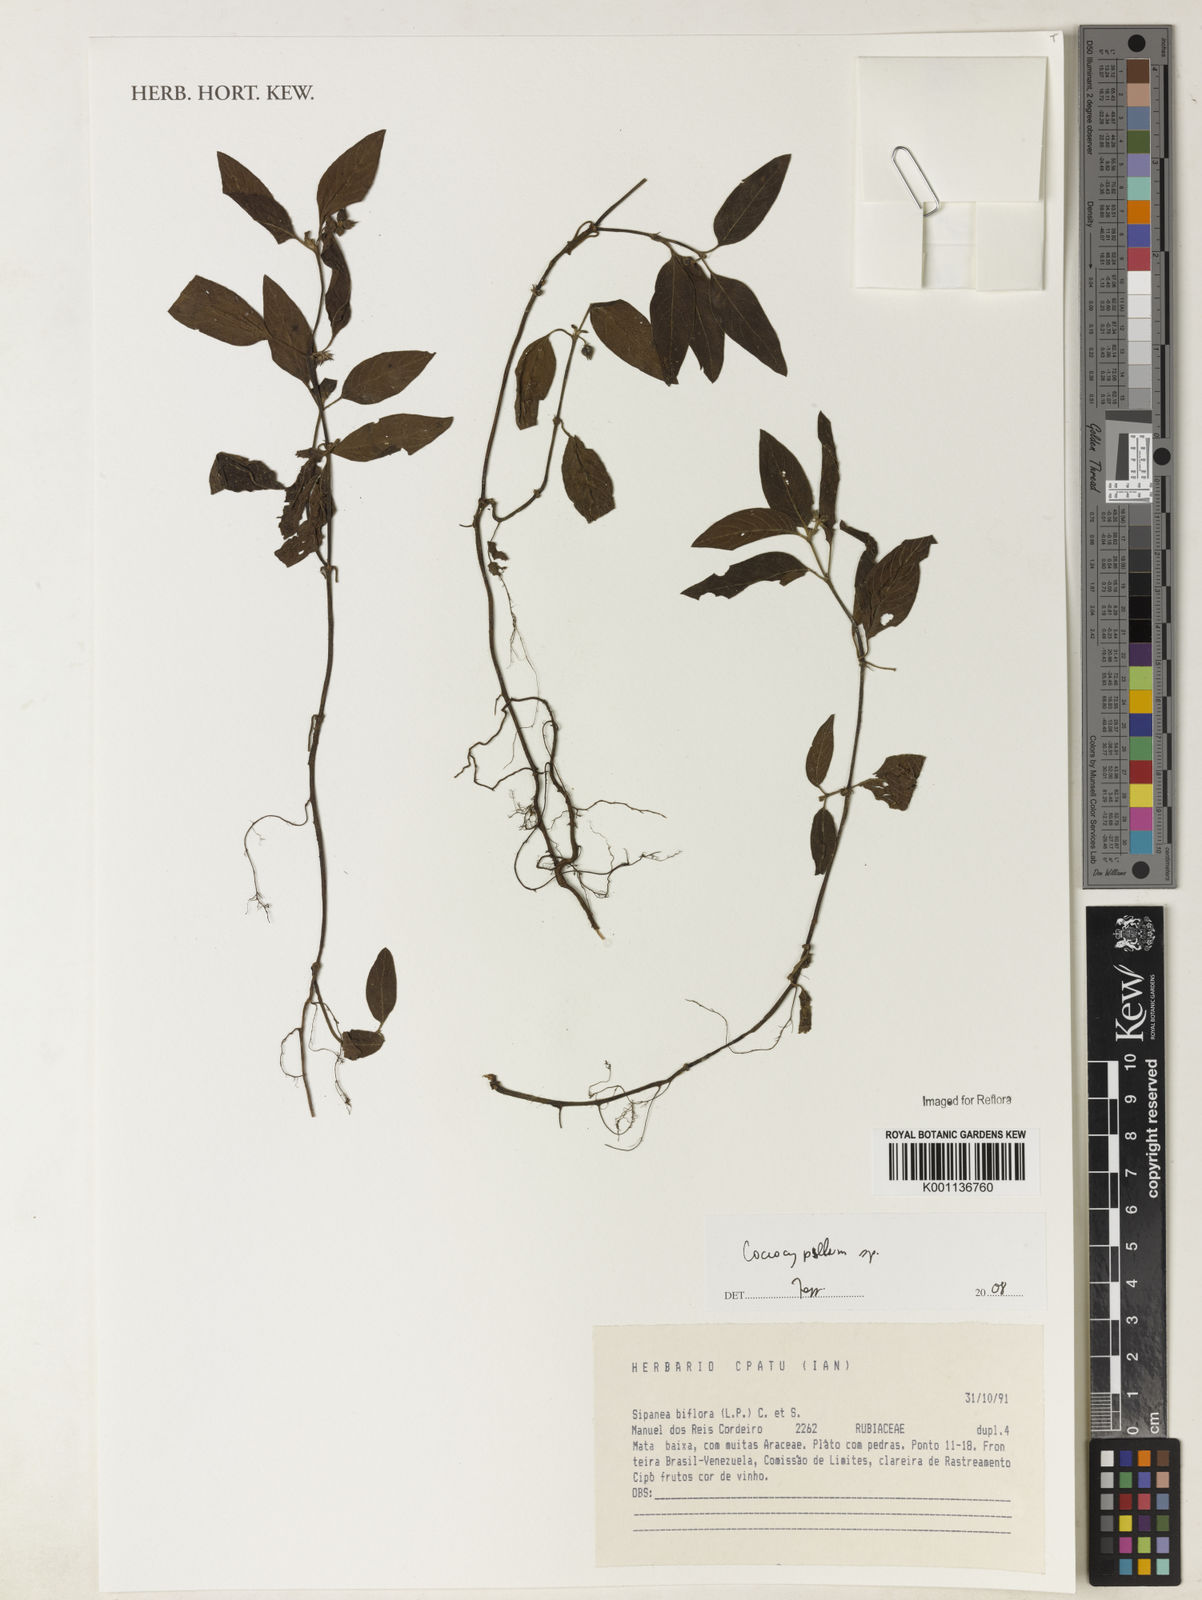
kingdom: Plantae
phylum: Tracheophyta
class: Magnoliopsida
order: Gentianales
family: Rubiaceae
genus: Coccocypselum
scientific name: Coccocypselum
